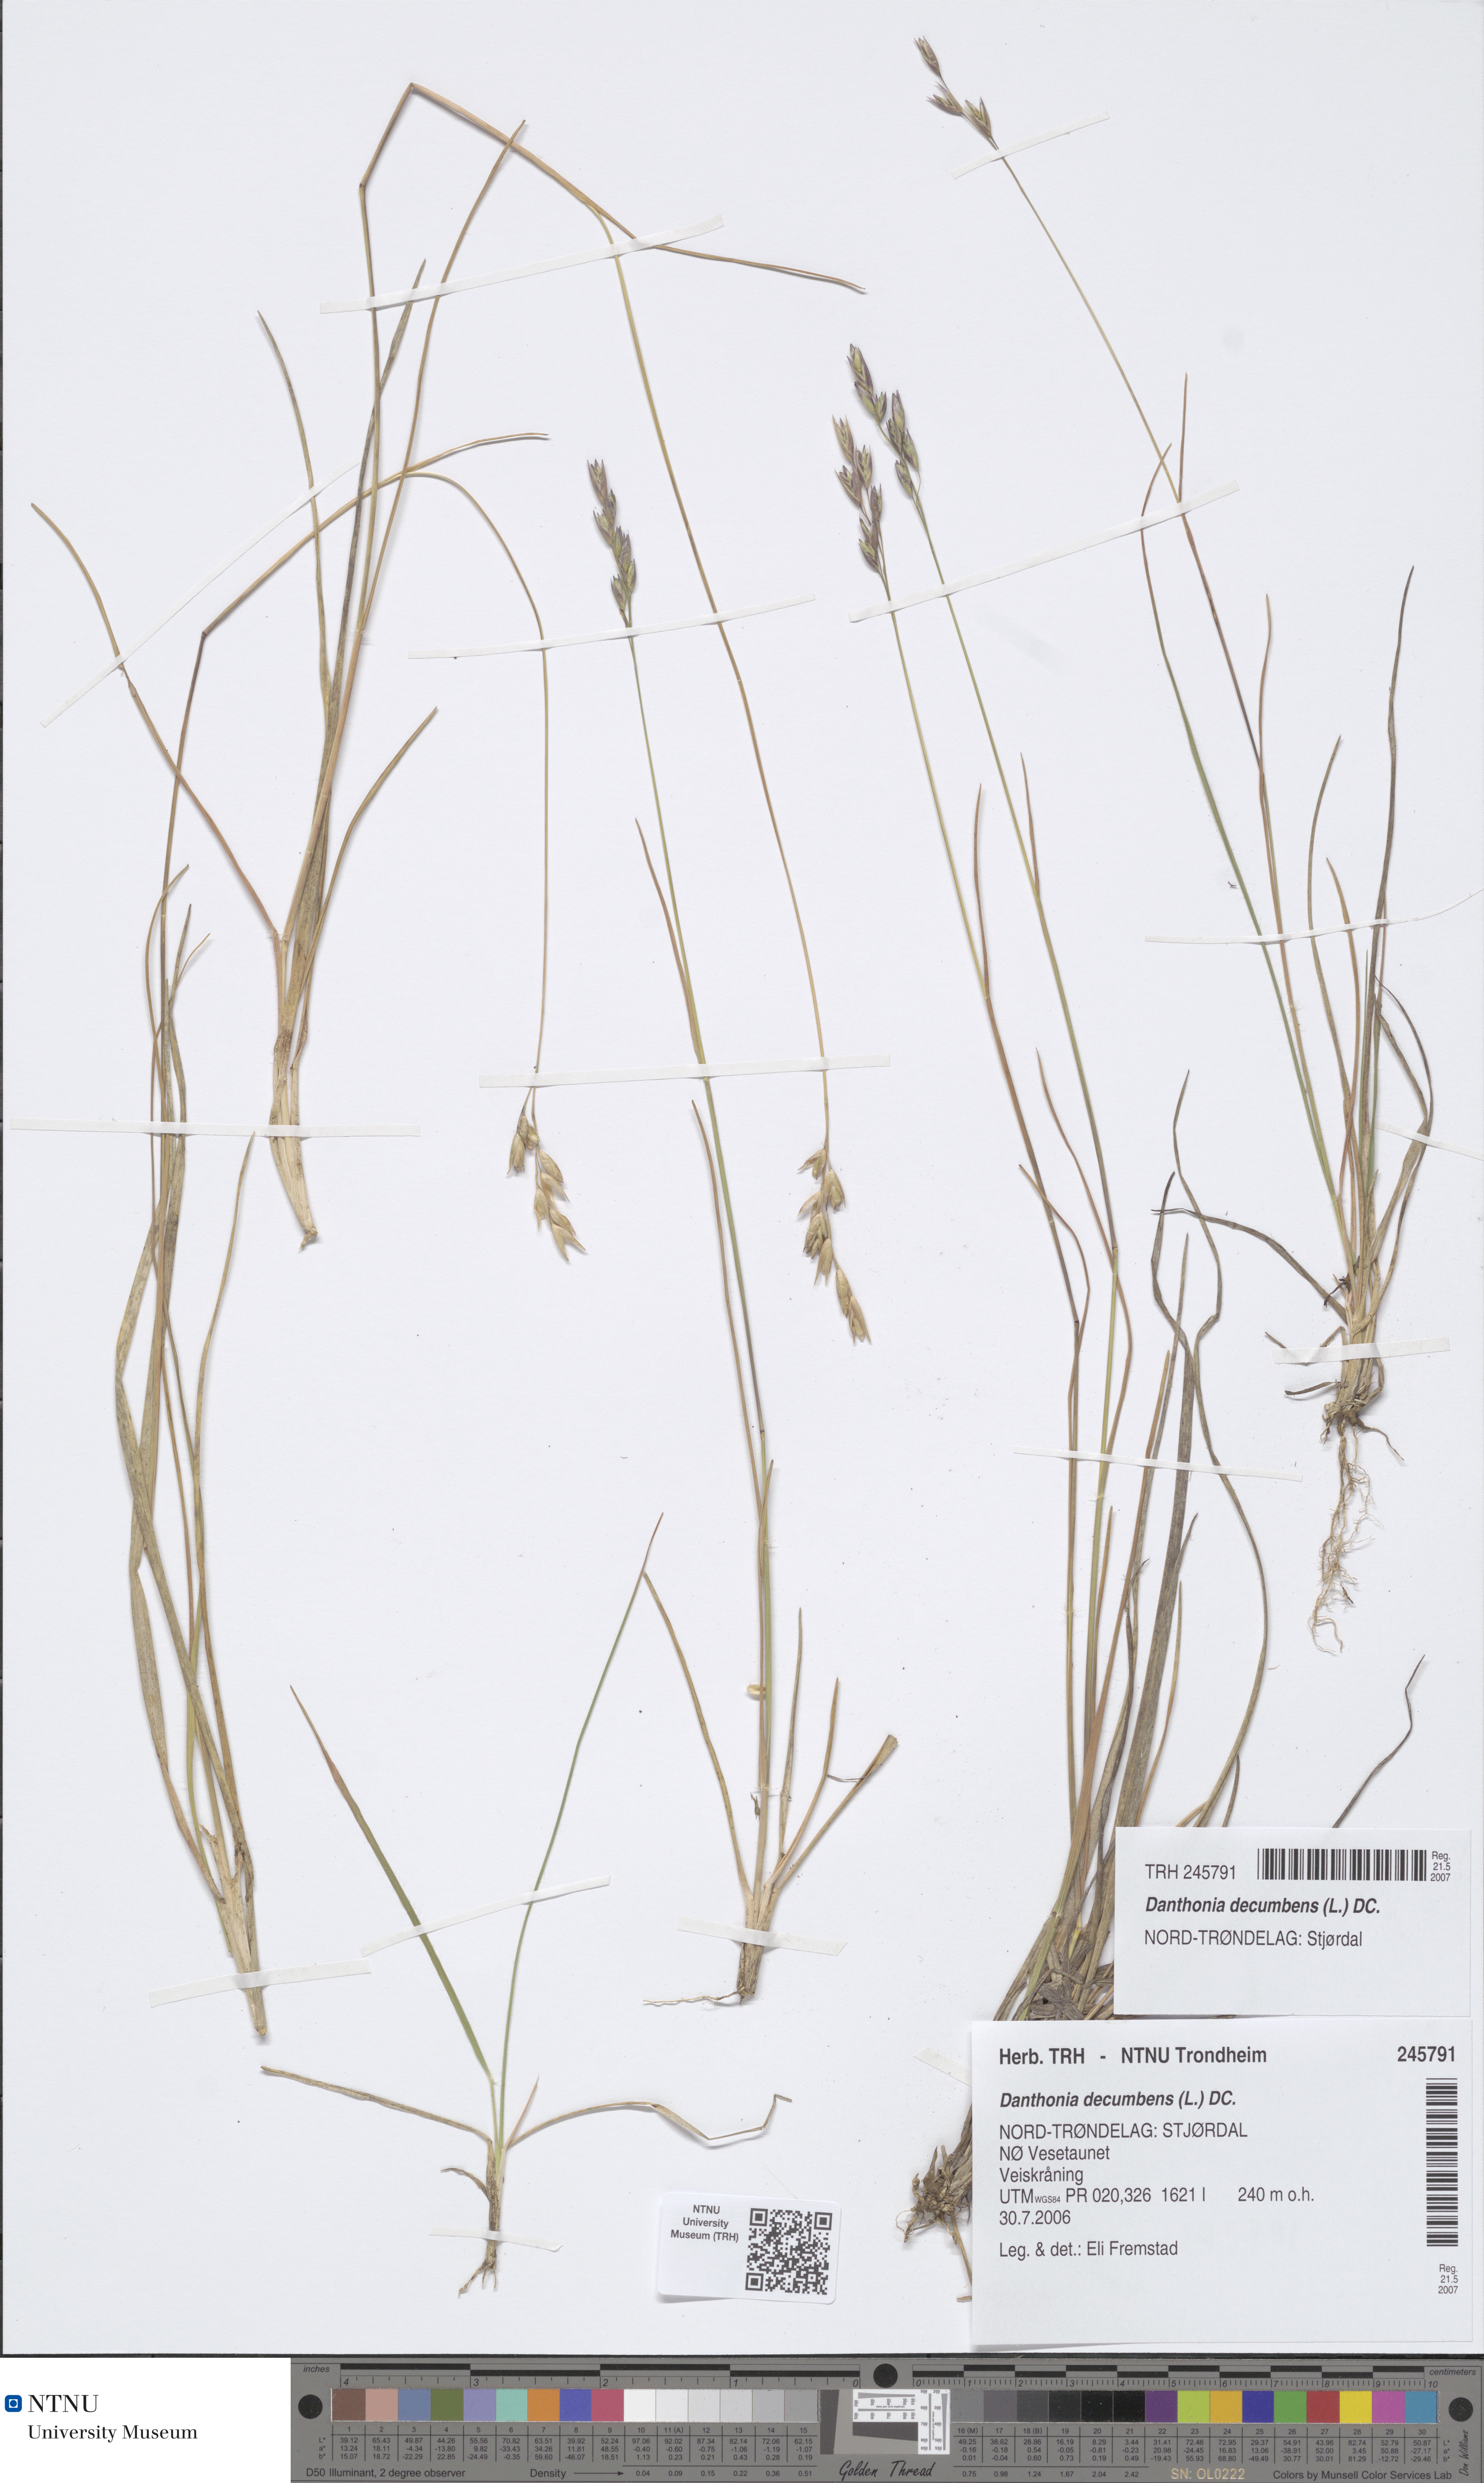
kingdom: Plantae
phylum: Tracheophyta
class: Liliopsida
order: Poales
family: Poaceae
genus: Danthonia
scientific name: Danthonia decumbens
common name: Common heathgrass
